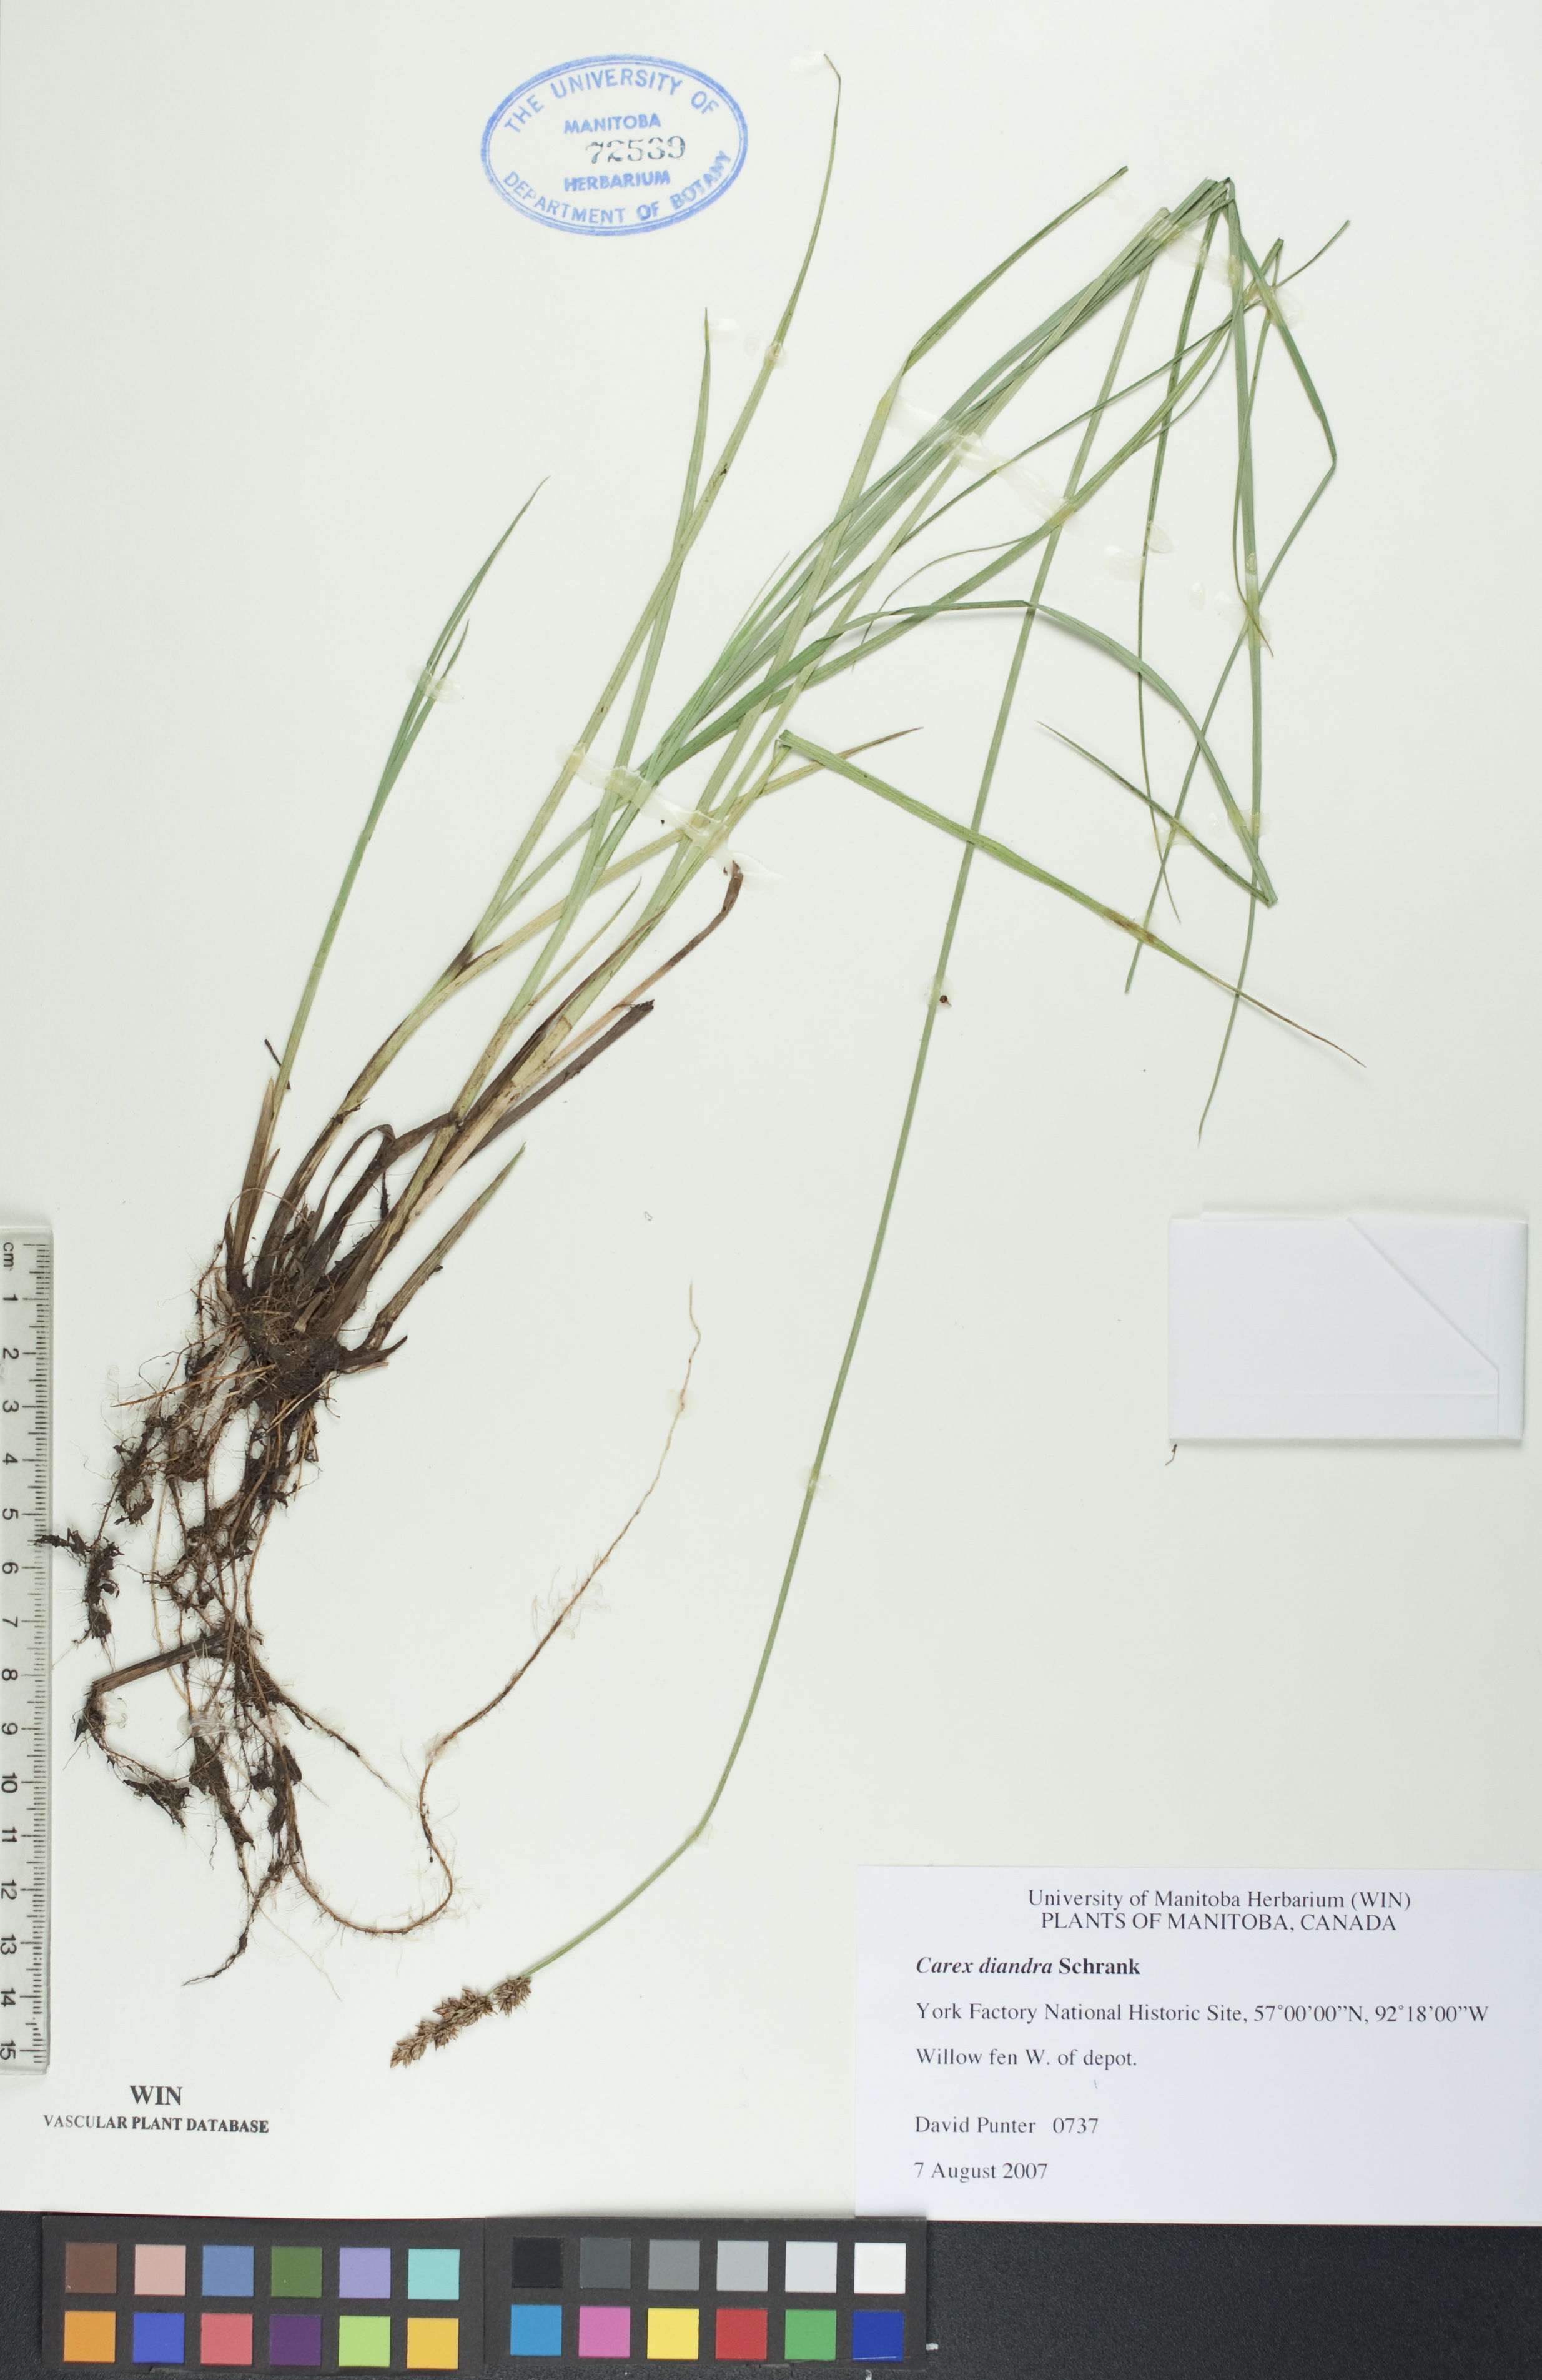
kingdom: Plantae
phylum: Tracheophyta
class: Liliopsida
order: Poales
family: Cyperaceae
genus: Carex
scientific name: Carex diandra
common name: Lesser tussock-sedge
